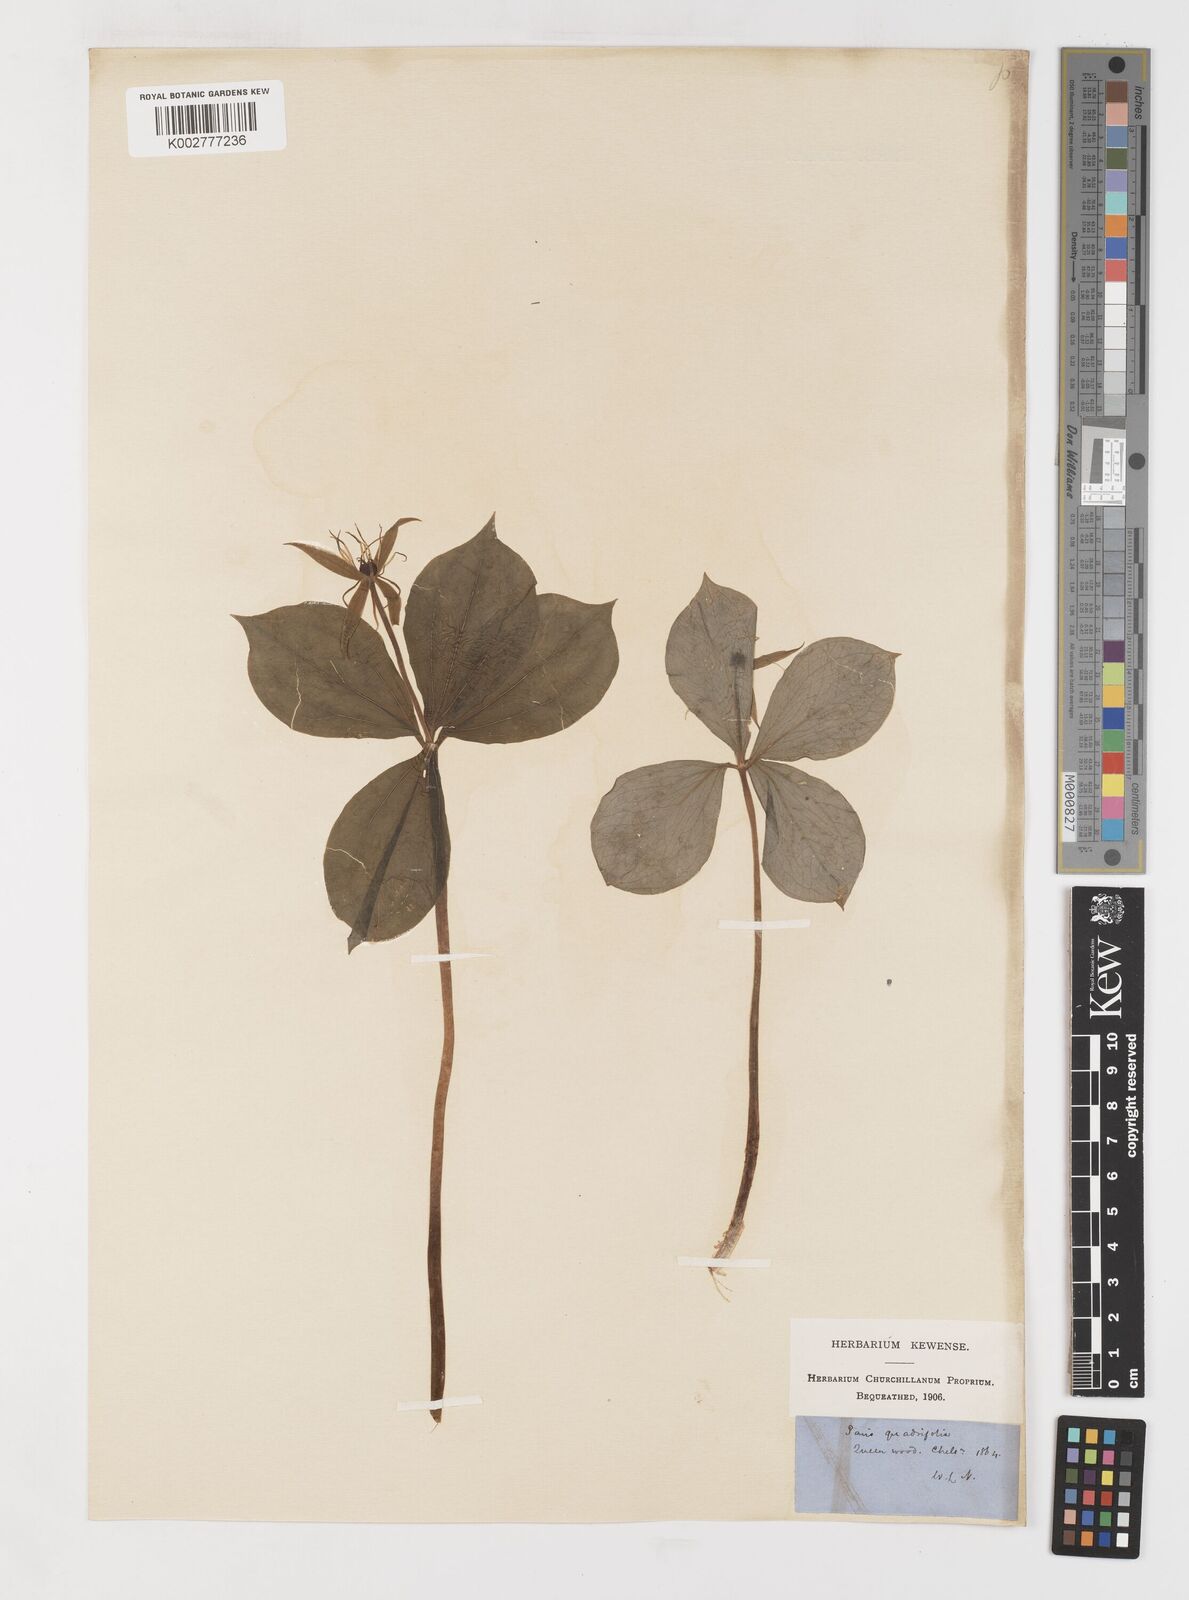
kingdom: Plantae
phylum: Tracheophyta
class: Liliopsida
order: Liliales
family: Melanthiaceae
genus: Paris
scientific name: Paris
